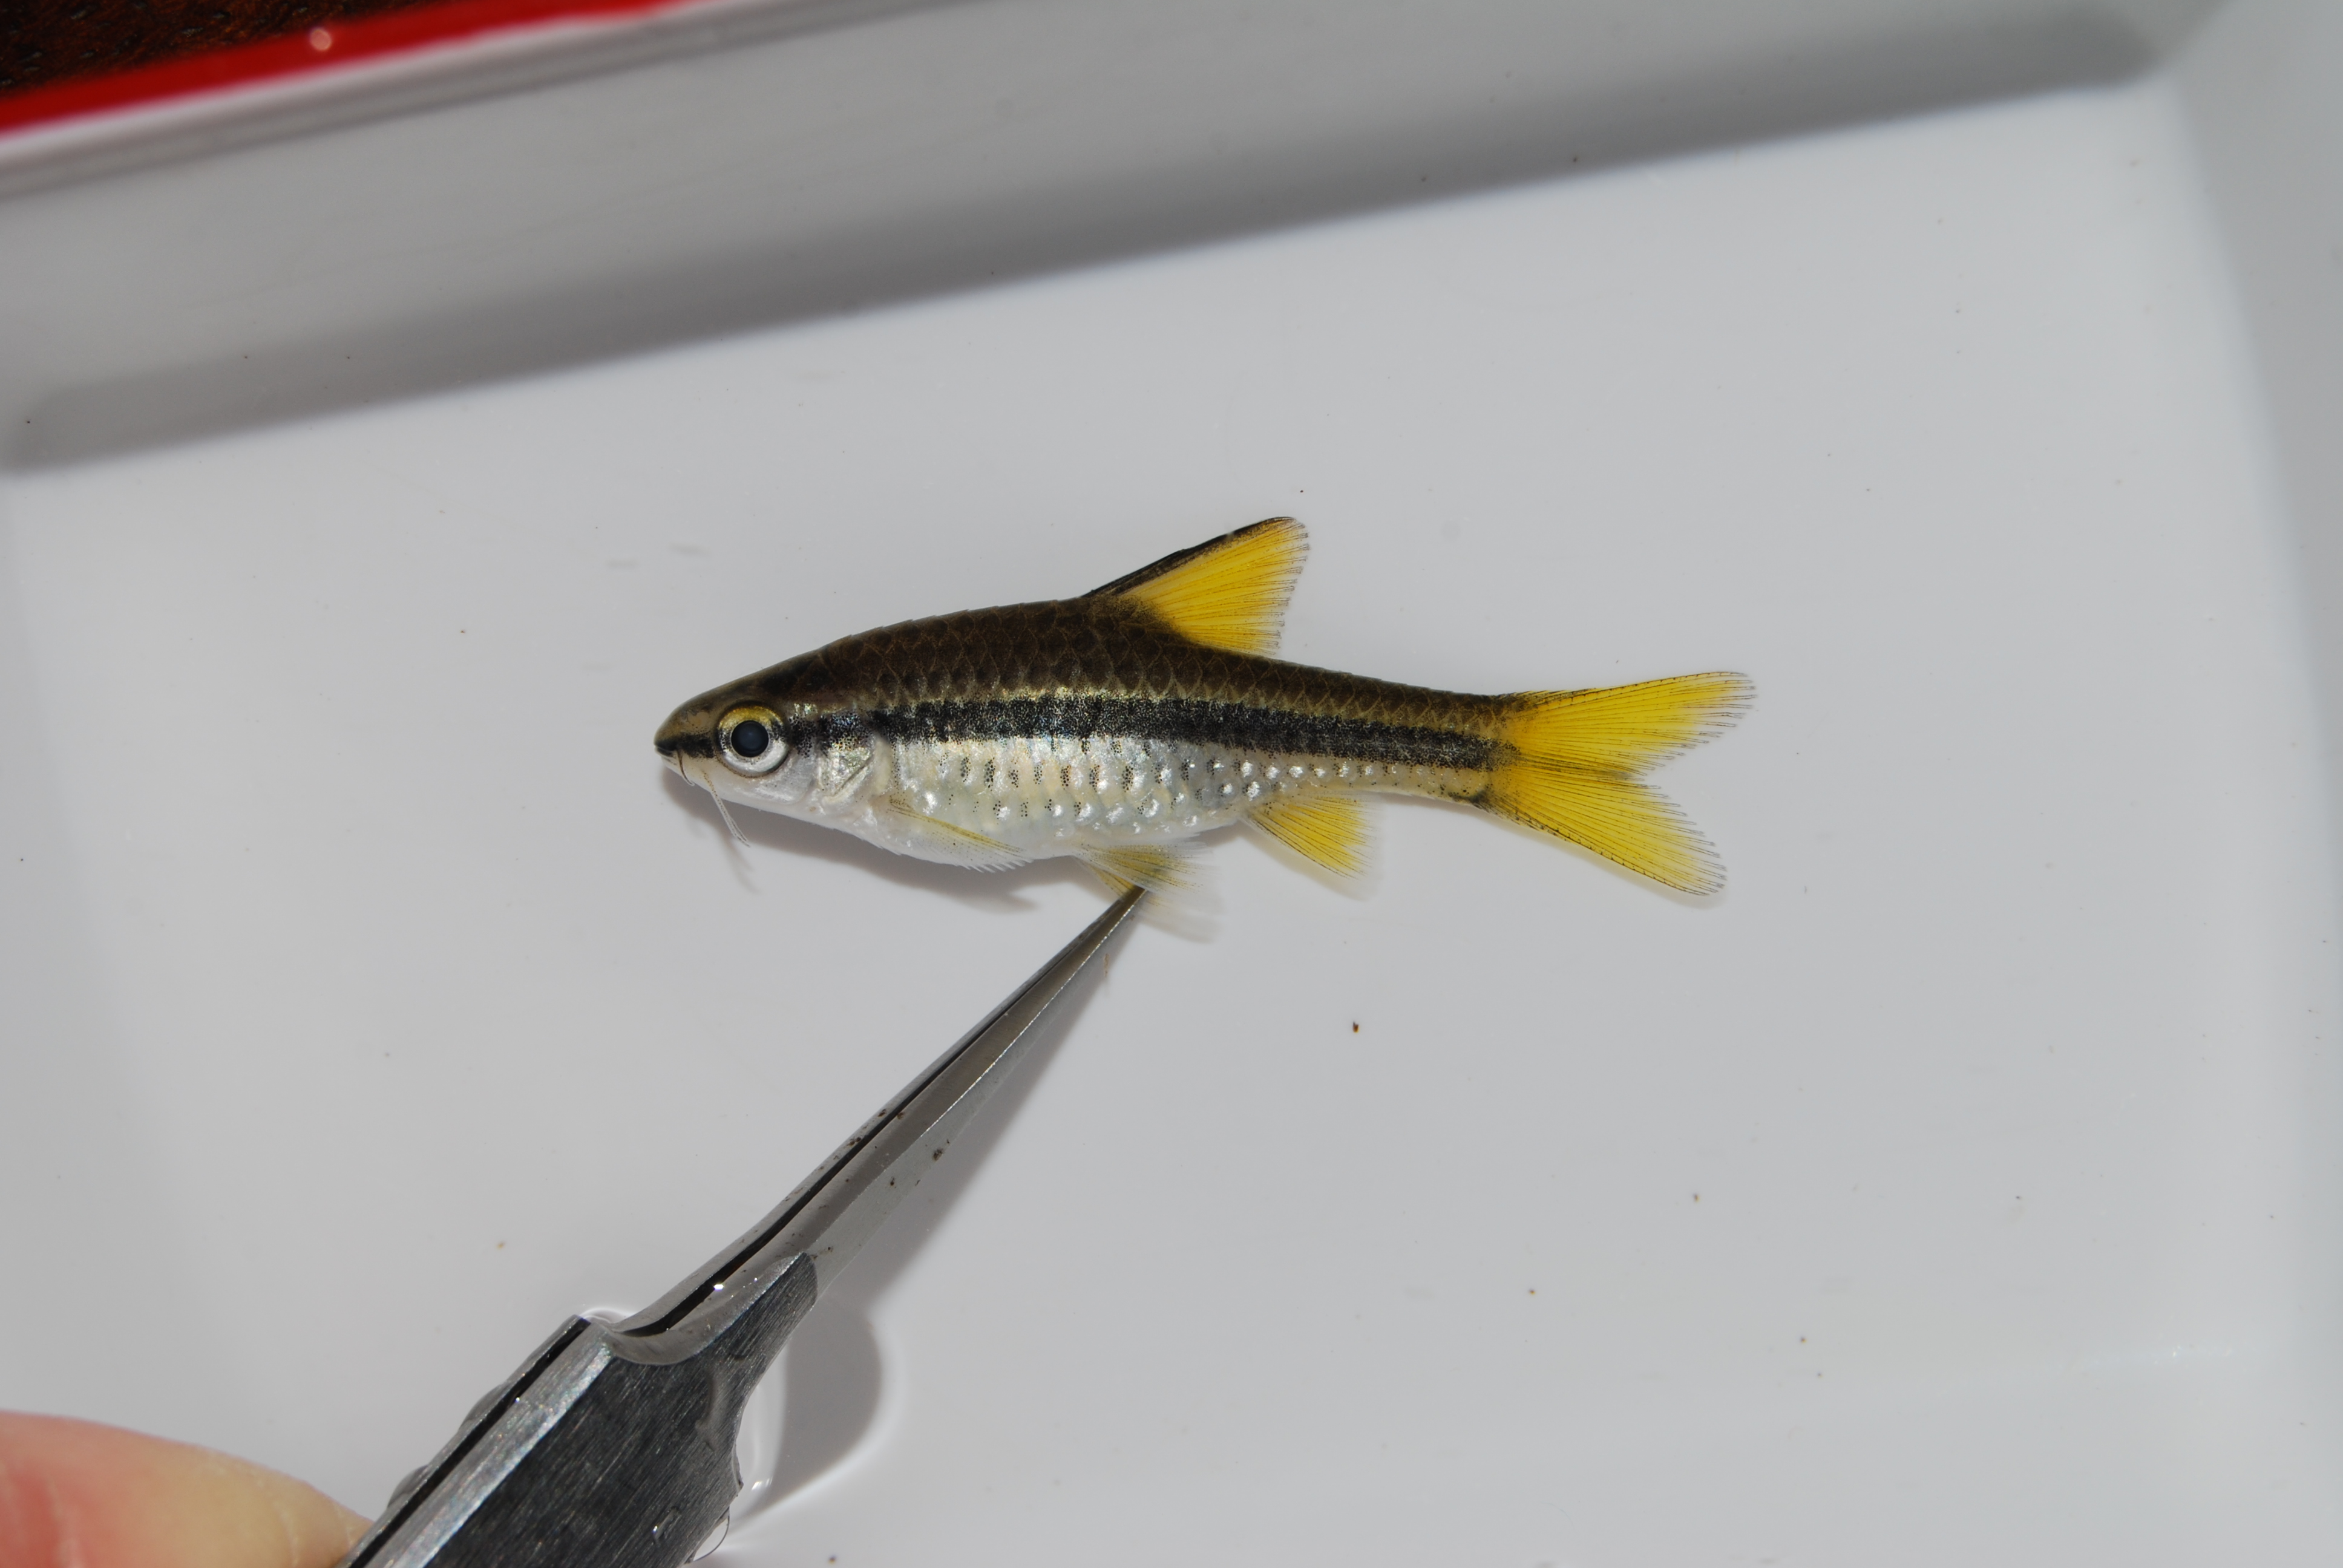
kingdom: Animalia
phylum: Chordata
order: Cypriniformes
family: Cyprinidae
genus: Enteromius
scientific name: Enteromius eutaenia
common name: Orangefin barb
